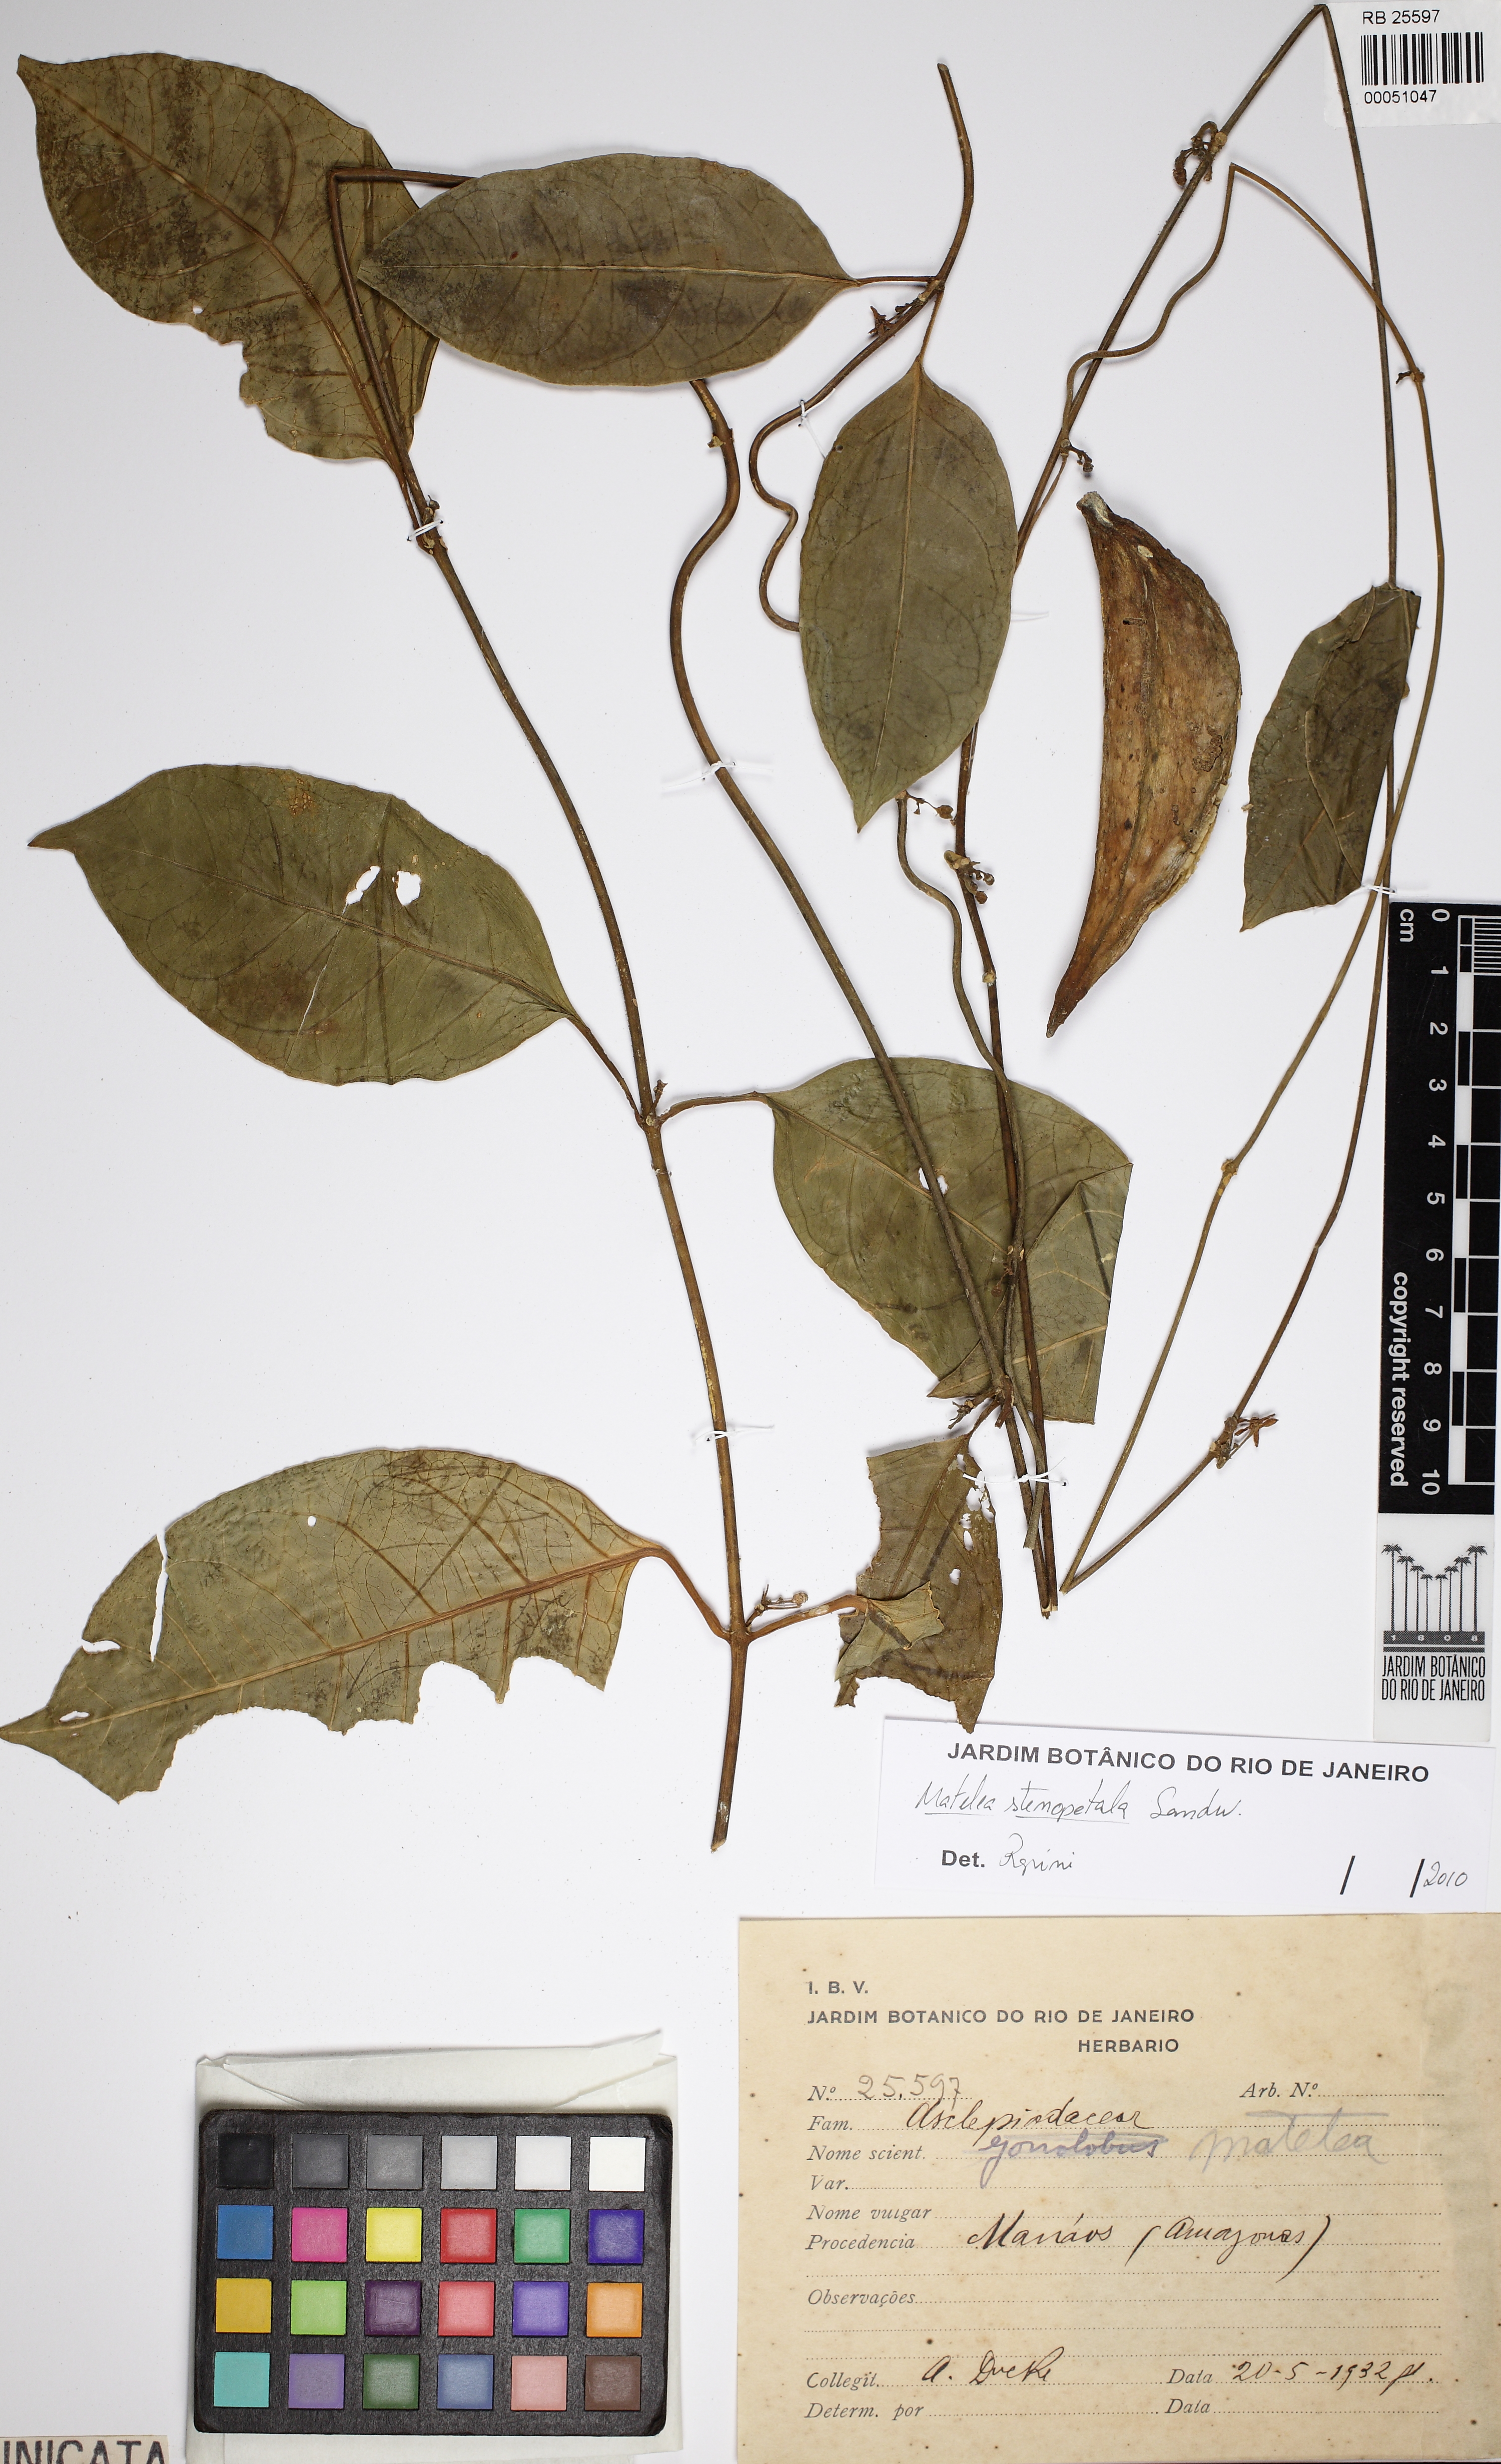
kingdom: Plantae
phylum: Tracheophyta
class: Magnoliopsida
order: Gentianales
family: Apocynaceae
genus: Matelea
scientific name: Matelea stenopetala
